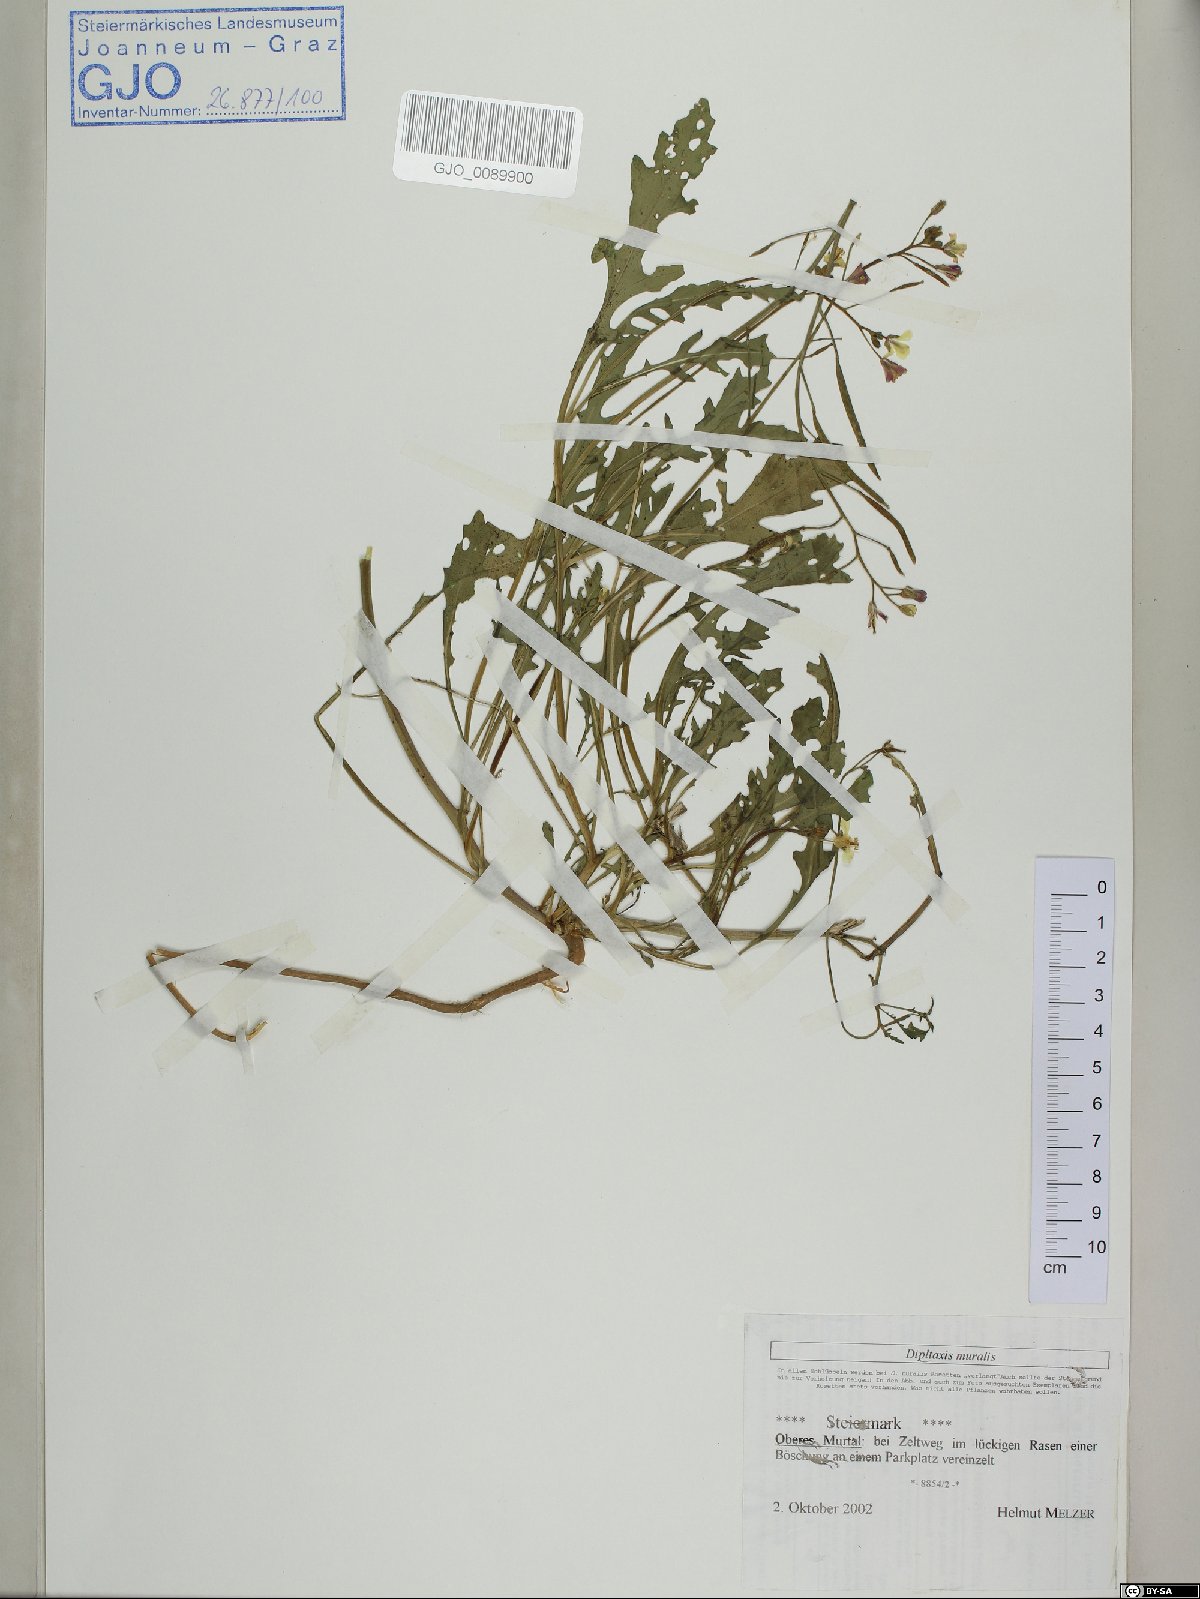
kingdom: Plantae
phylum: Tracheophyta
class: Magnoliopsida
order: Brassicales
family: Brassicaceae
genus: Diplotaxis
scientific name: Diplotaxis muralis
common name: Annual wall-rocket
